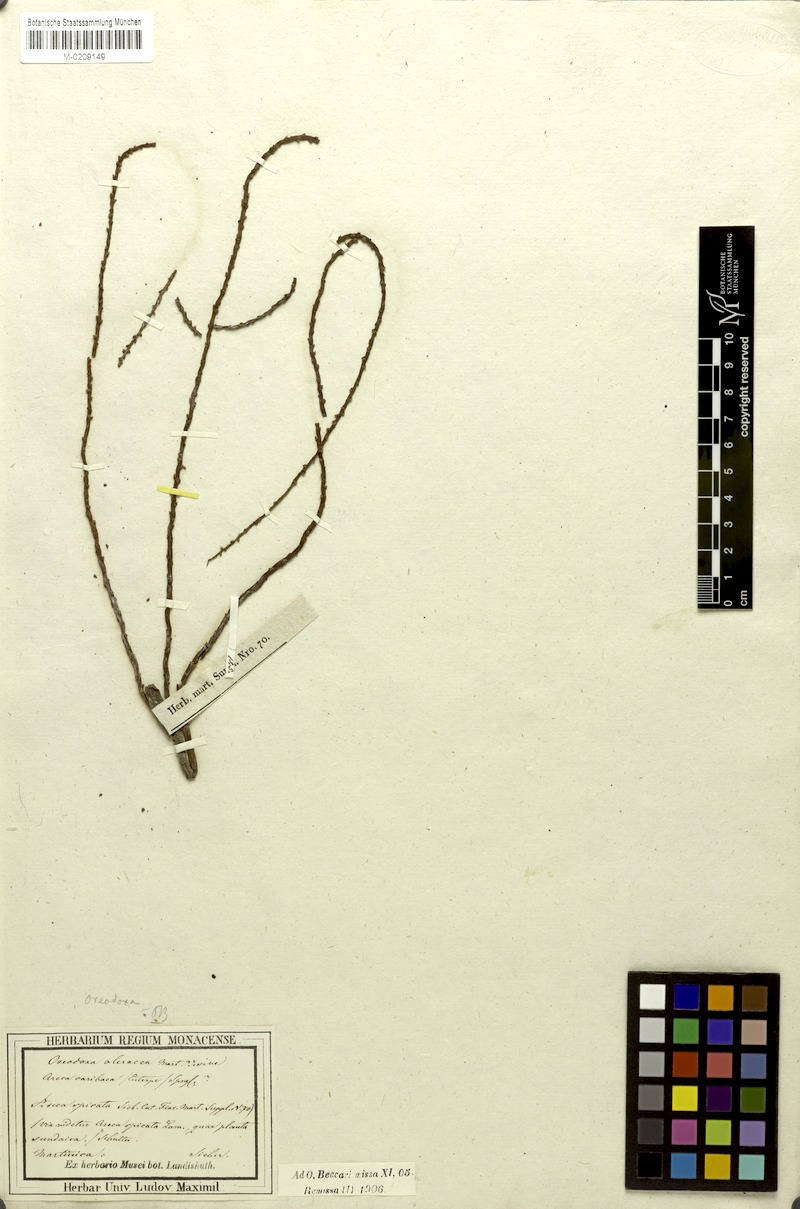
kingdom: Plantae
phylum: Tracheophyta
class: Liliopsida
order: Arecales
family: Arecaceae
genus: Roystonea
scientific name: Roystonea
